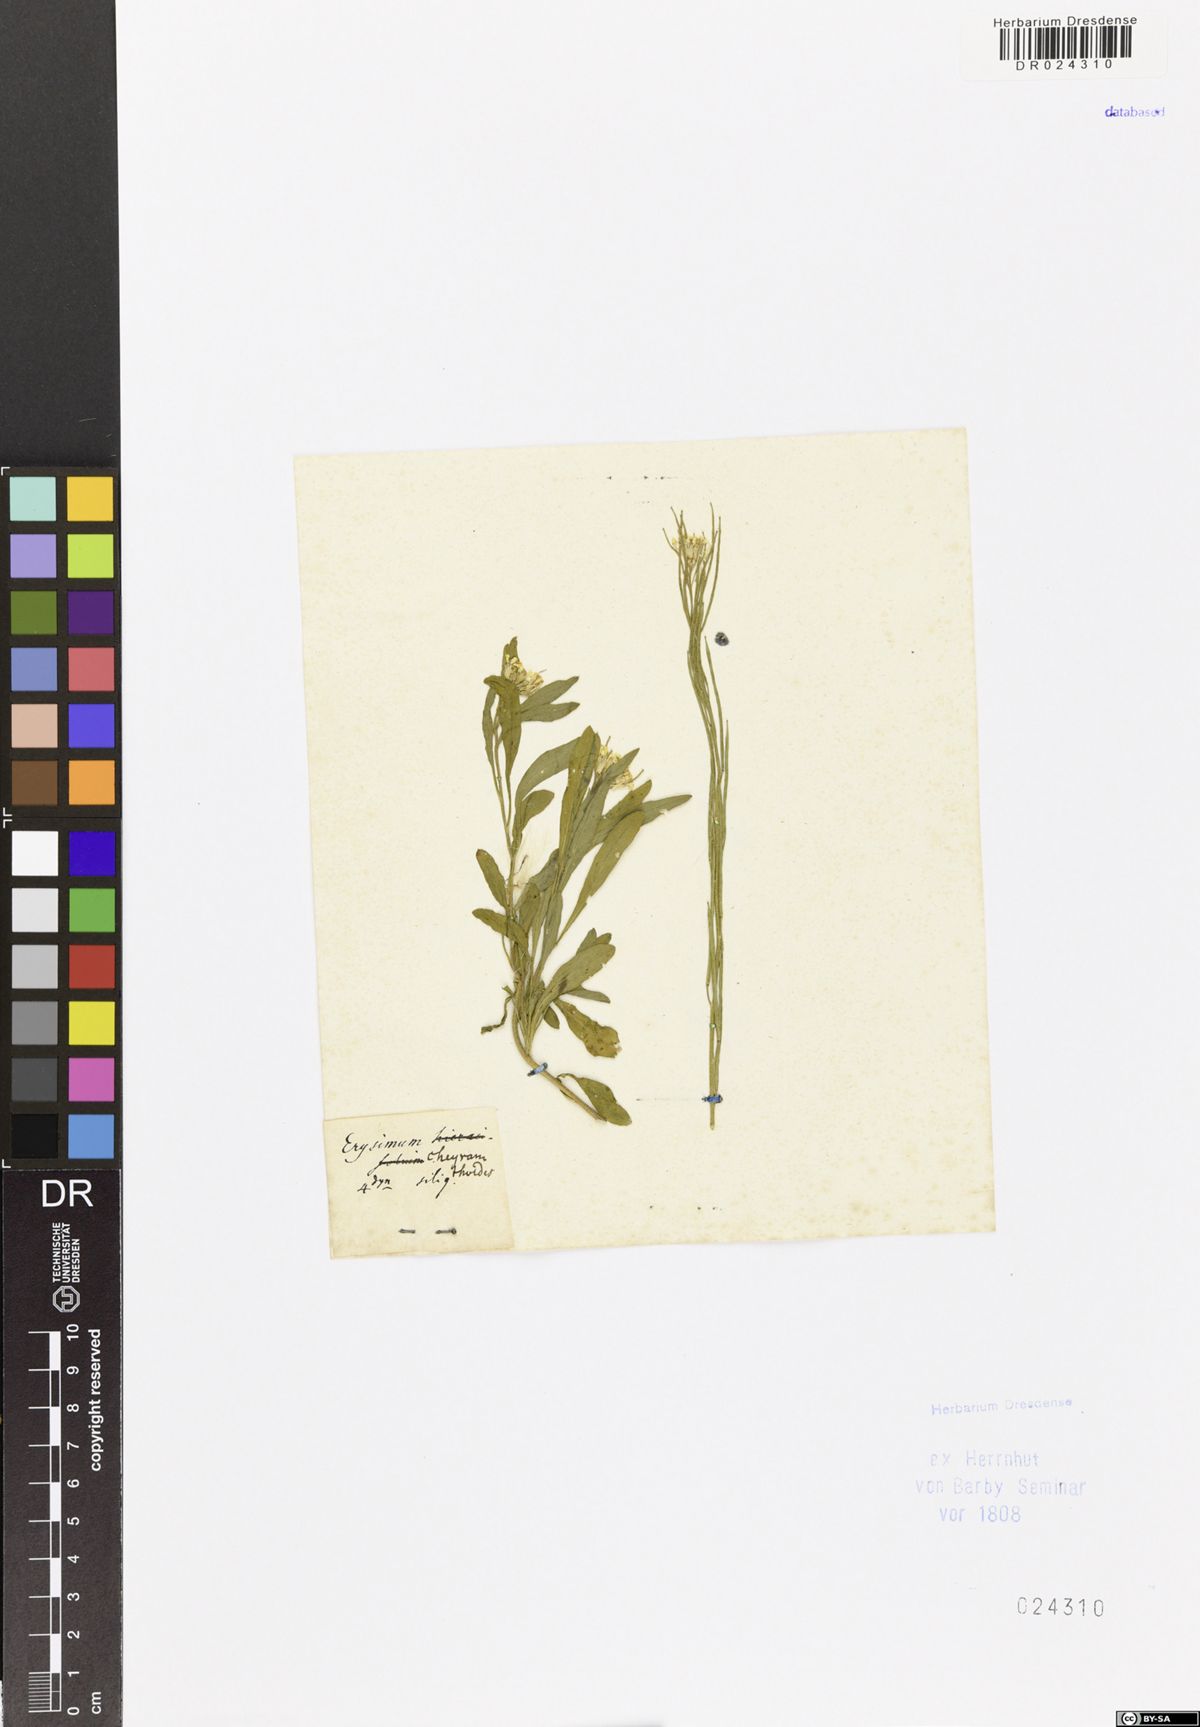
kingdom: Plantae
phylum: Tracheophyta
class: Magnoliopsida
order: Brassicales
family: Brassicaceae
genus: Erysimum
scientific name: Erysimum virgatum
